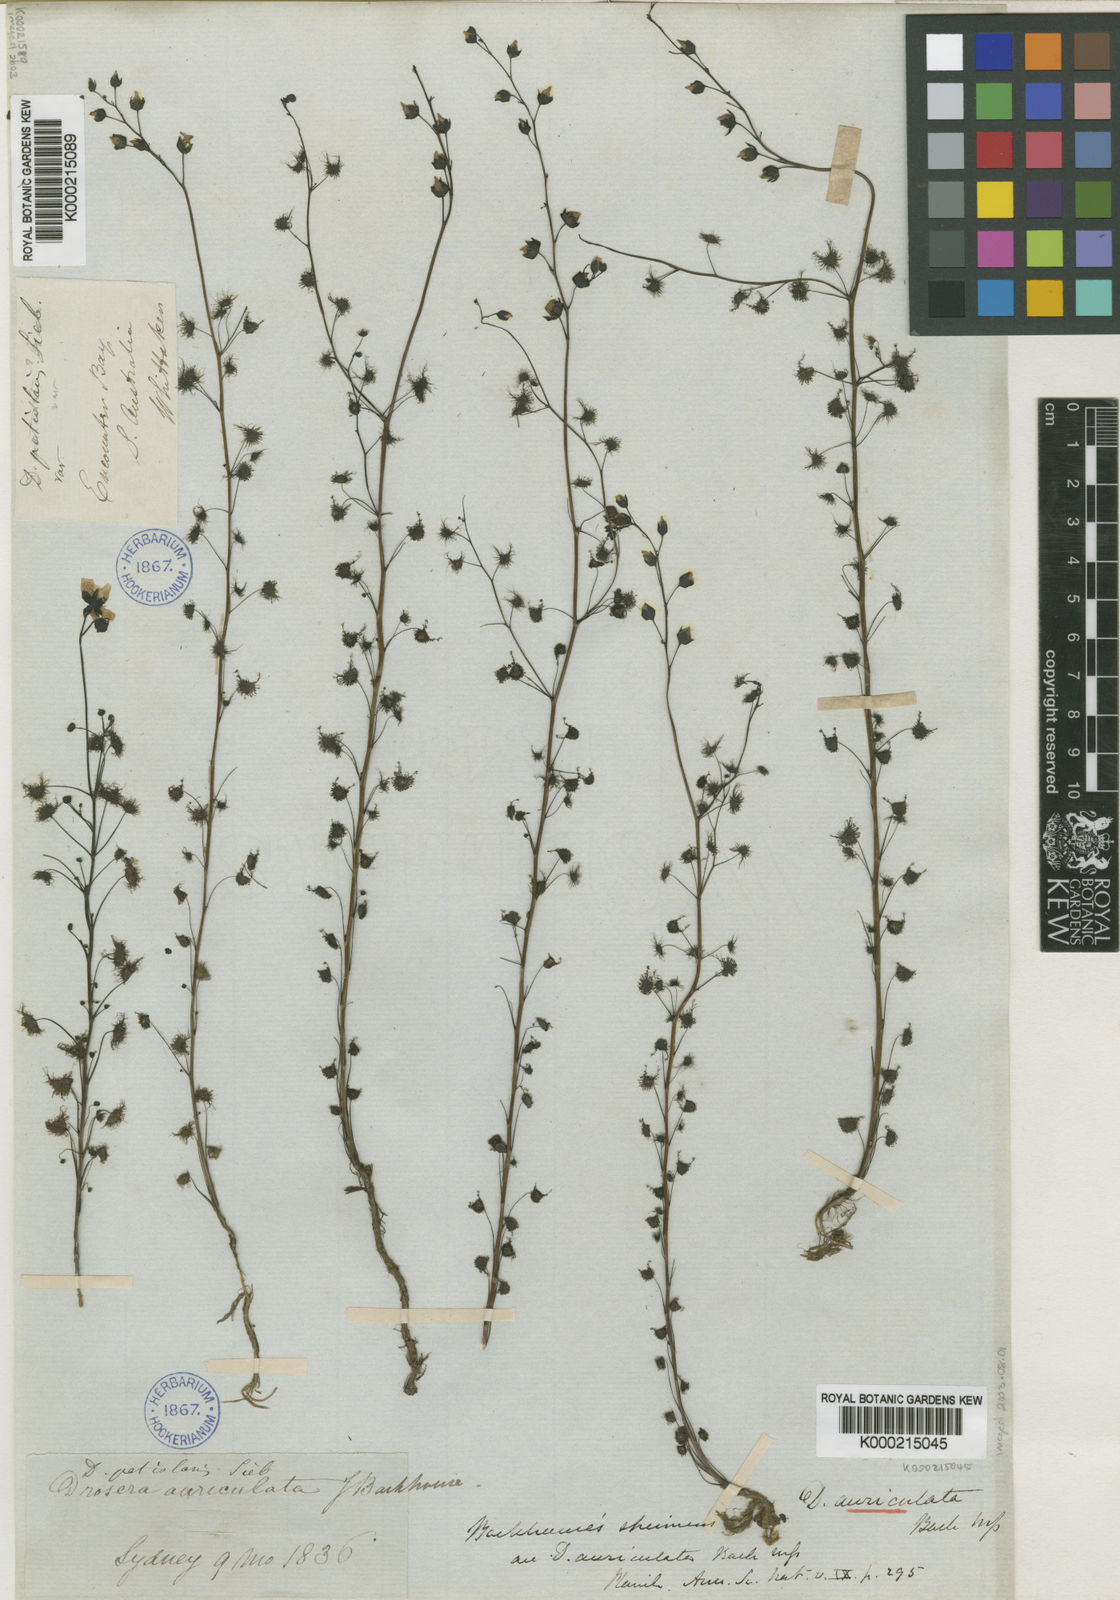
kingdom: Plantae
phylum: Tracheophyta
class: Magnoliopsida
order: Caryophyllales
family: Droseraceae
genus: Drosera
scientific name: Drosera peltata
